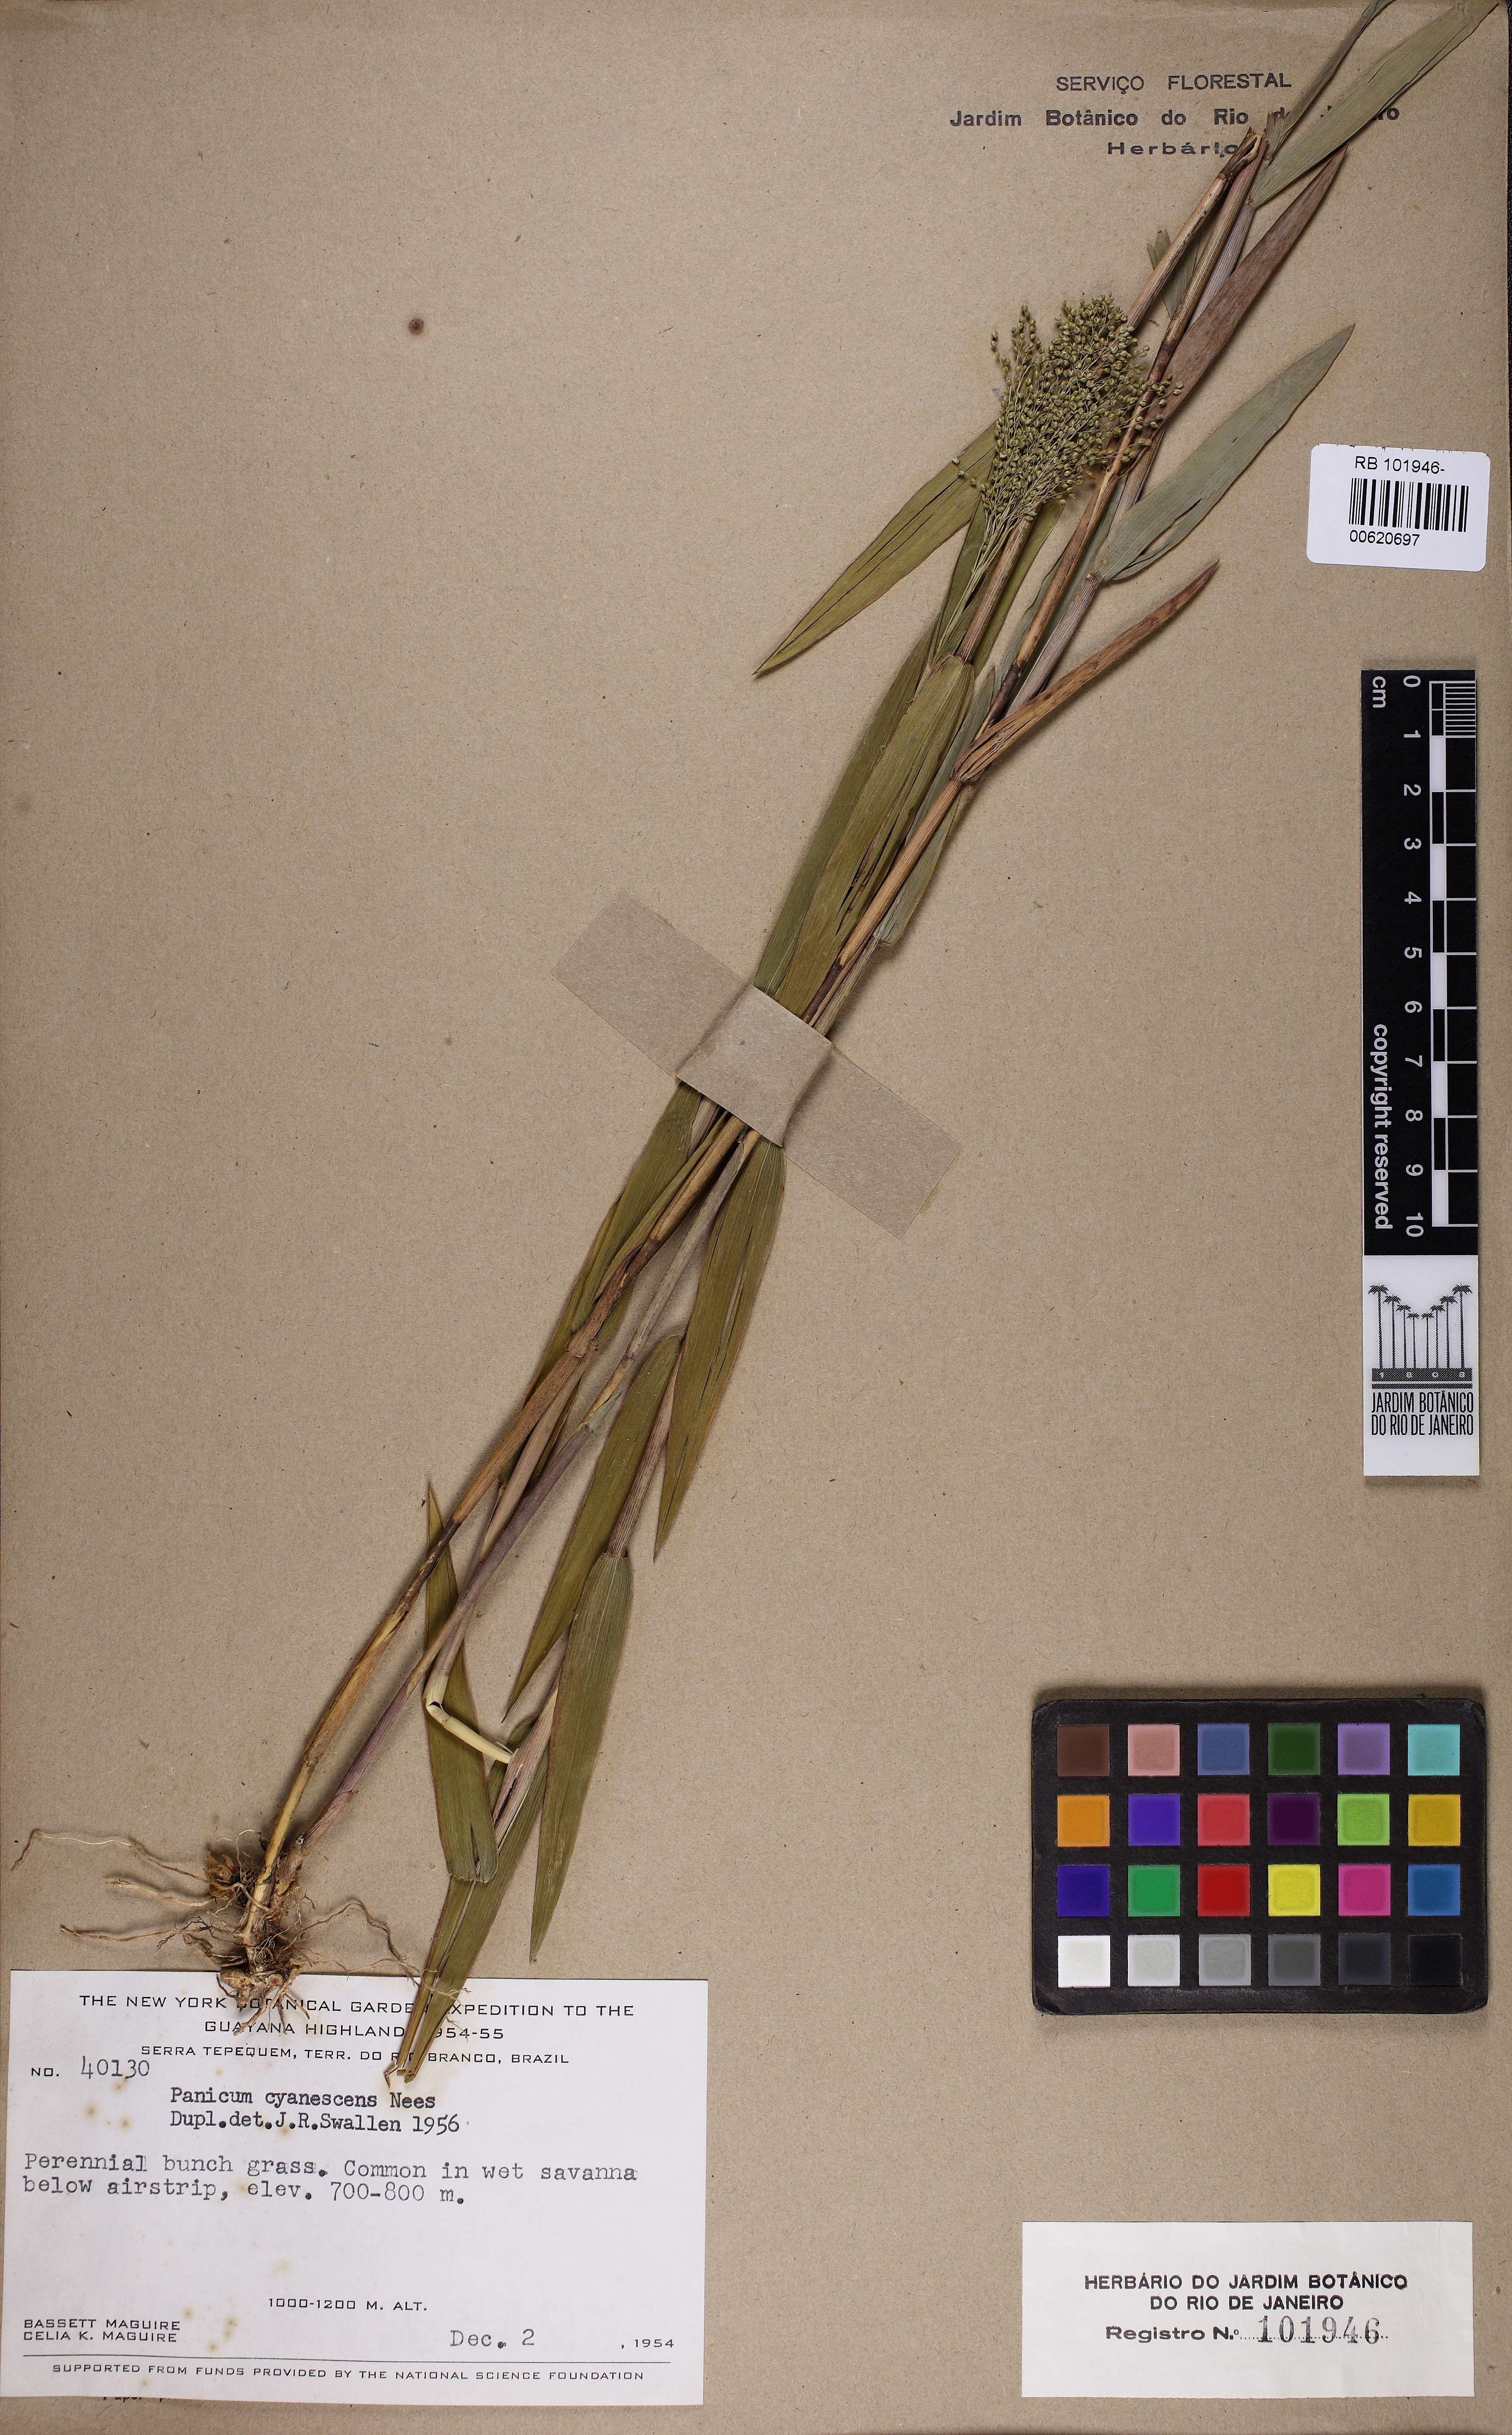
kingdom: Plantae
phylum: Tracheophyta
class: Liliopsida
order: Poales
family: Poaceae
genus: Trichanthecium
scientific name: Trichanthecium cyanescens
